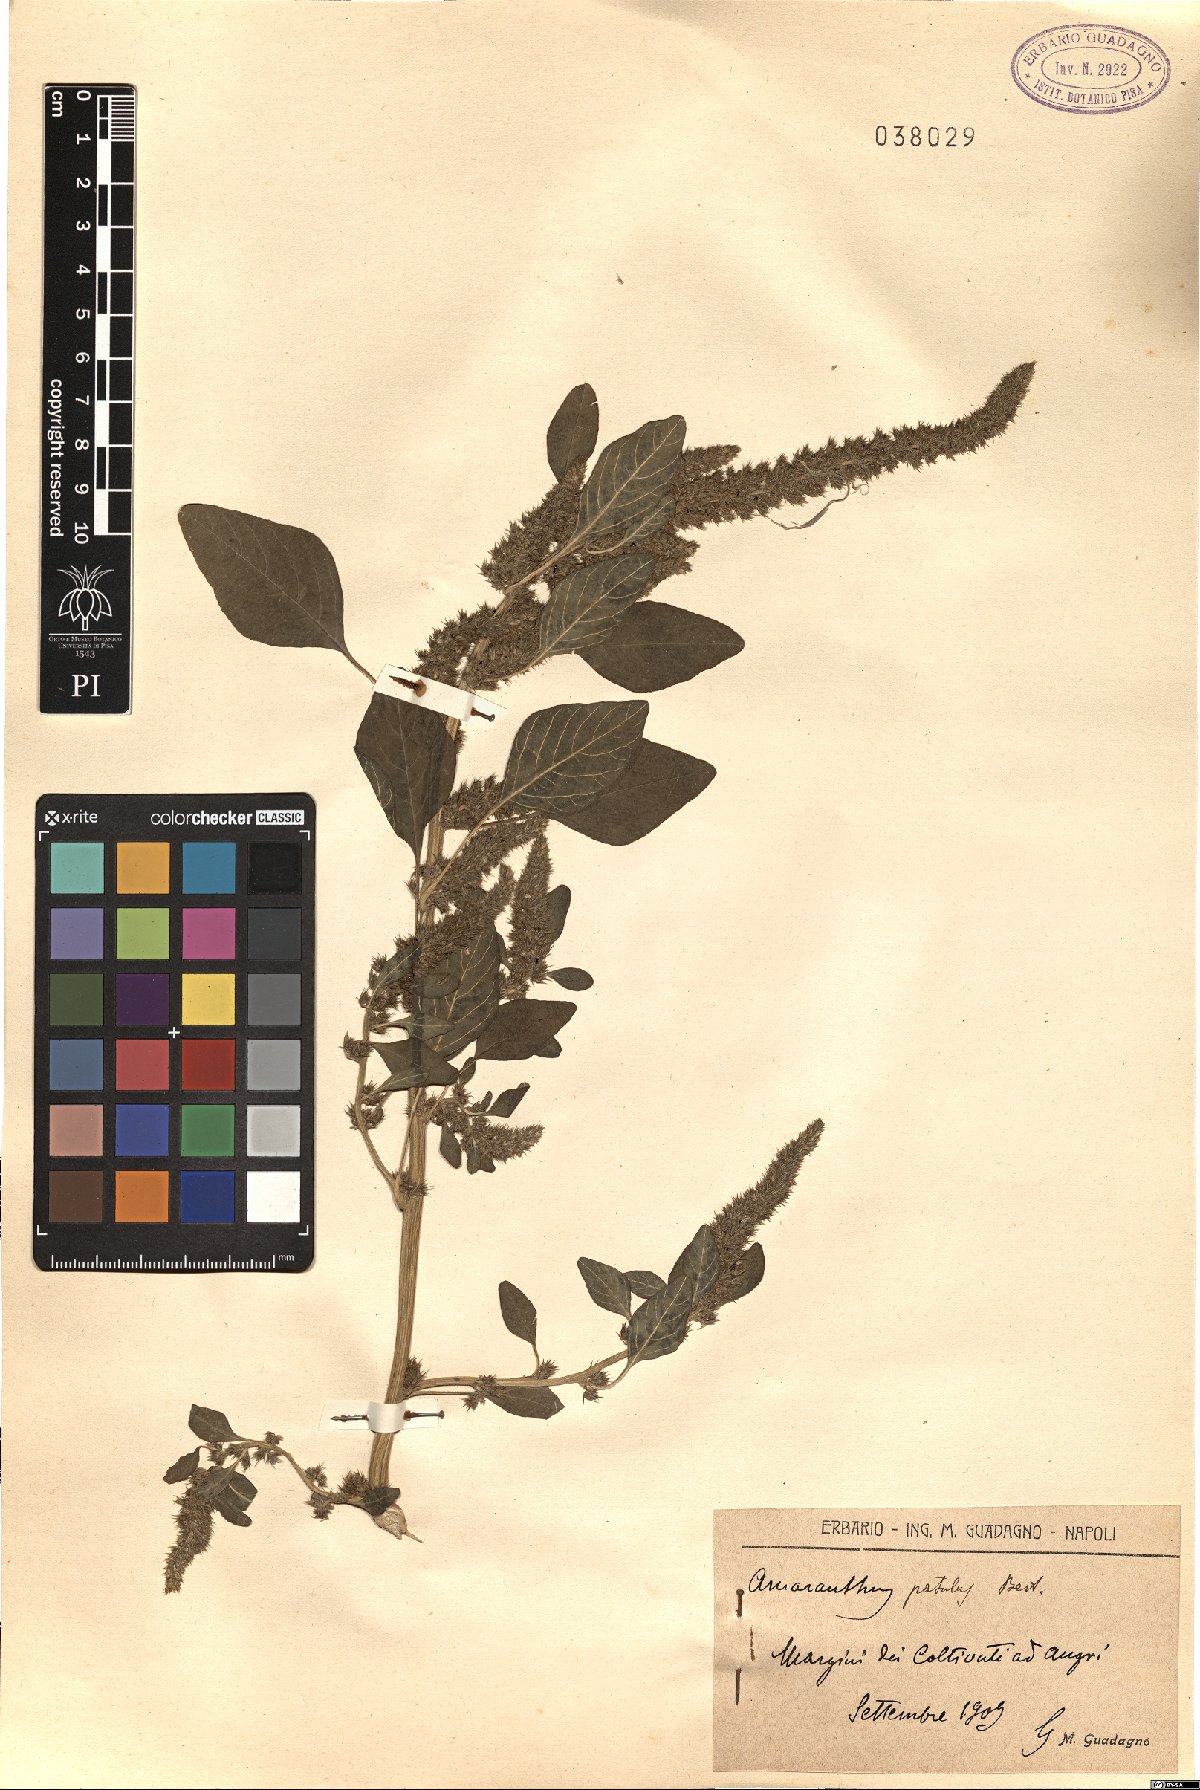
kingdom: Plantae
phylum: Tracheophyta
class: Magnoliopsida
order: Caryophyllales
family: Amaranthaceae
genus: Amaranthus
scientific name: Amaranthus hybridus
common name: Green amaranth
